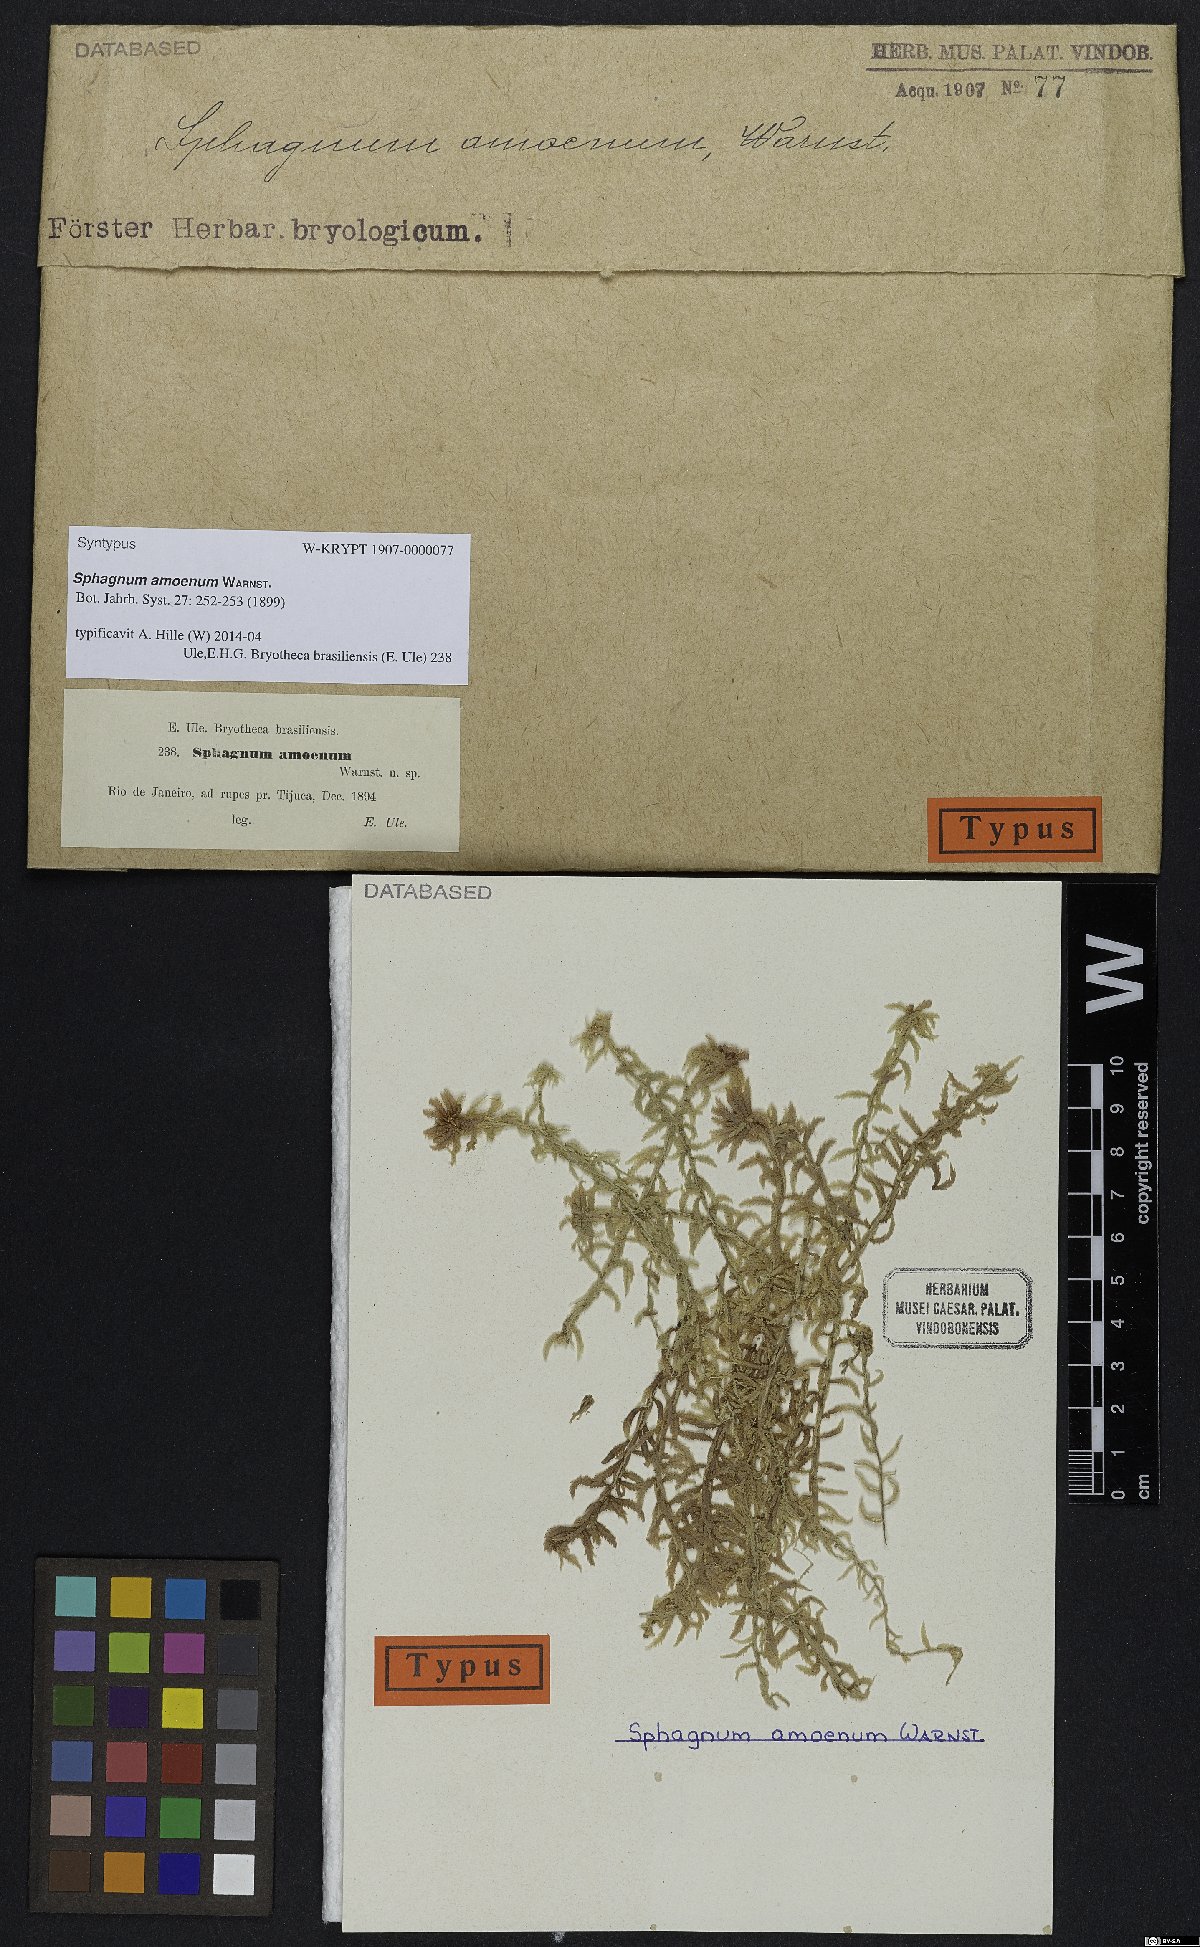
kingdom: Plantae
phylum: Bryophyta
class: Sphagnopsida
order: Sphagnales
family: Sphagnaceae
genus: Sphagnum
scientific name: Sphagnum amoenum
